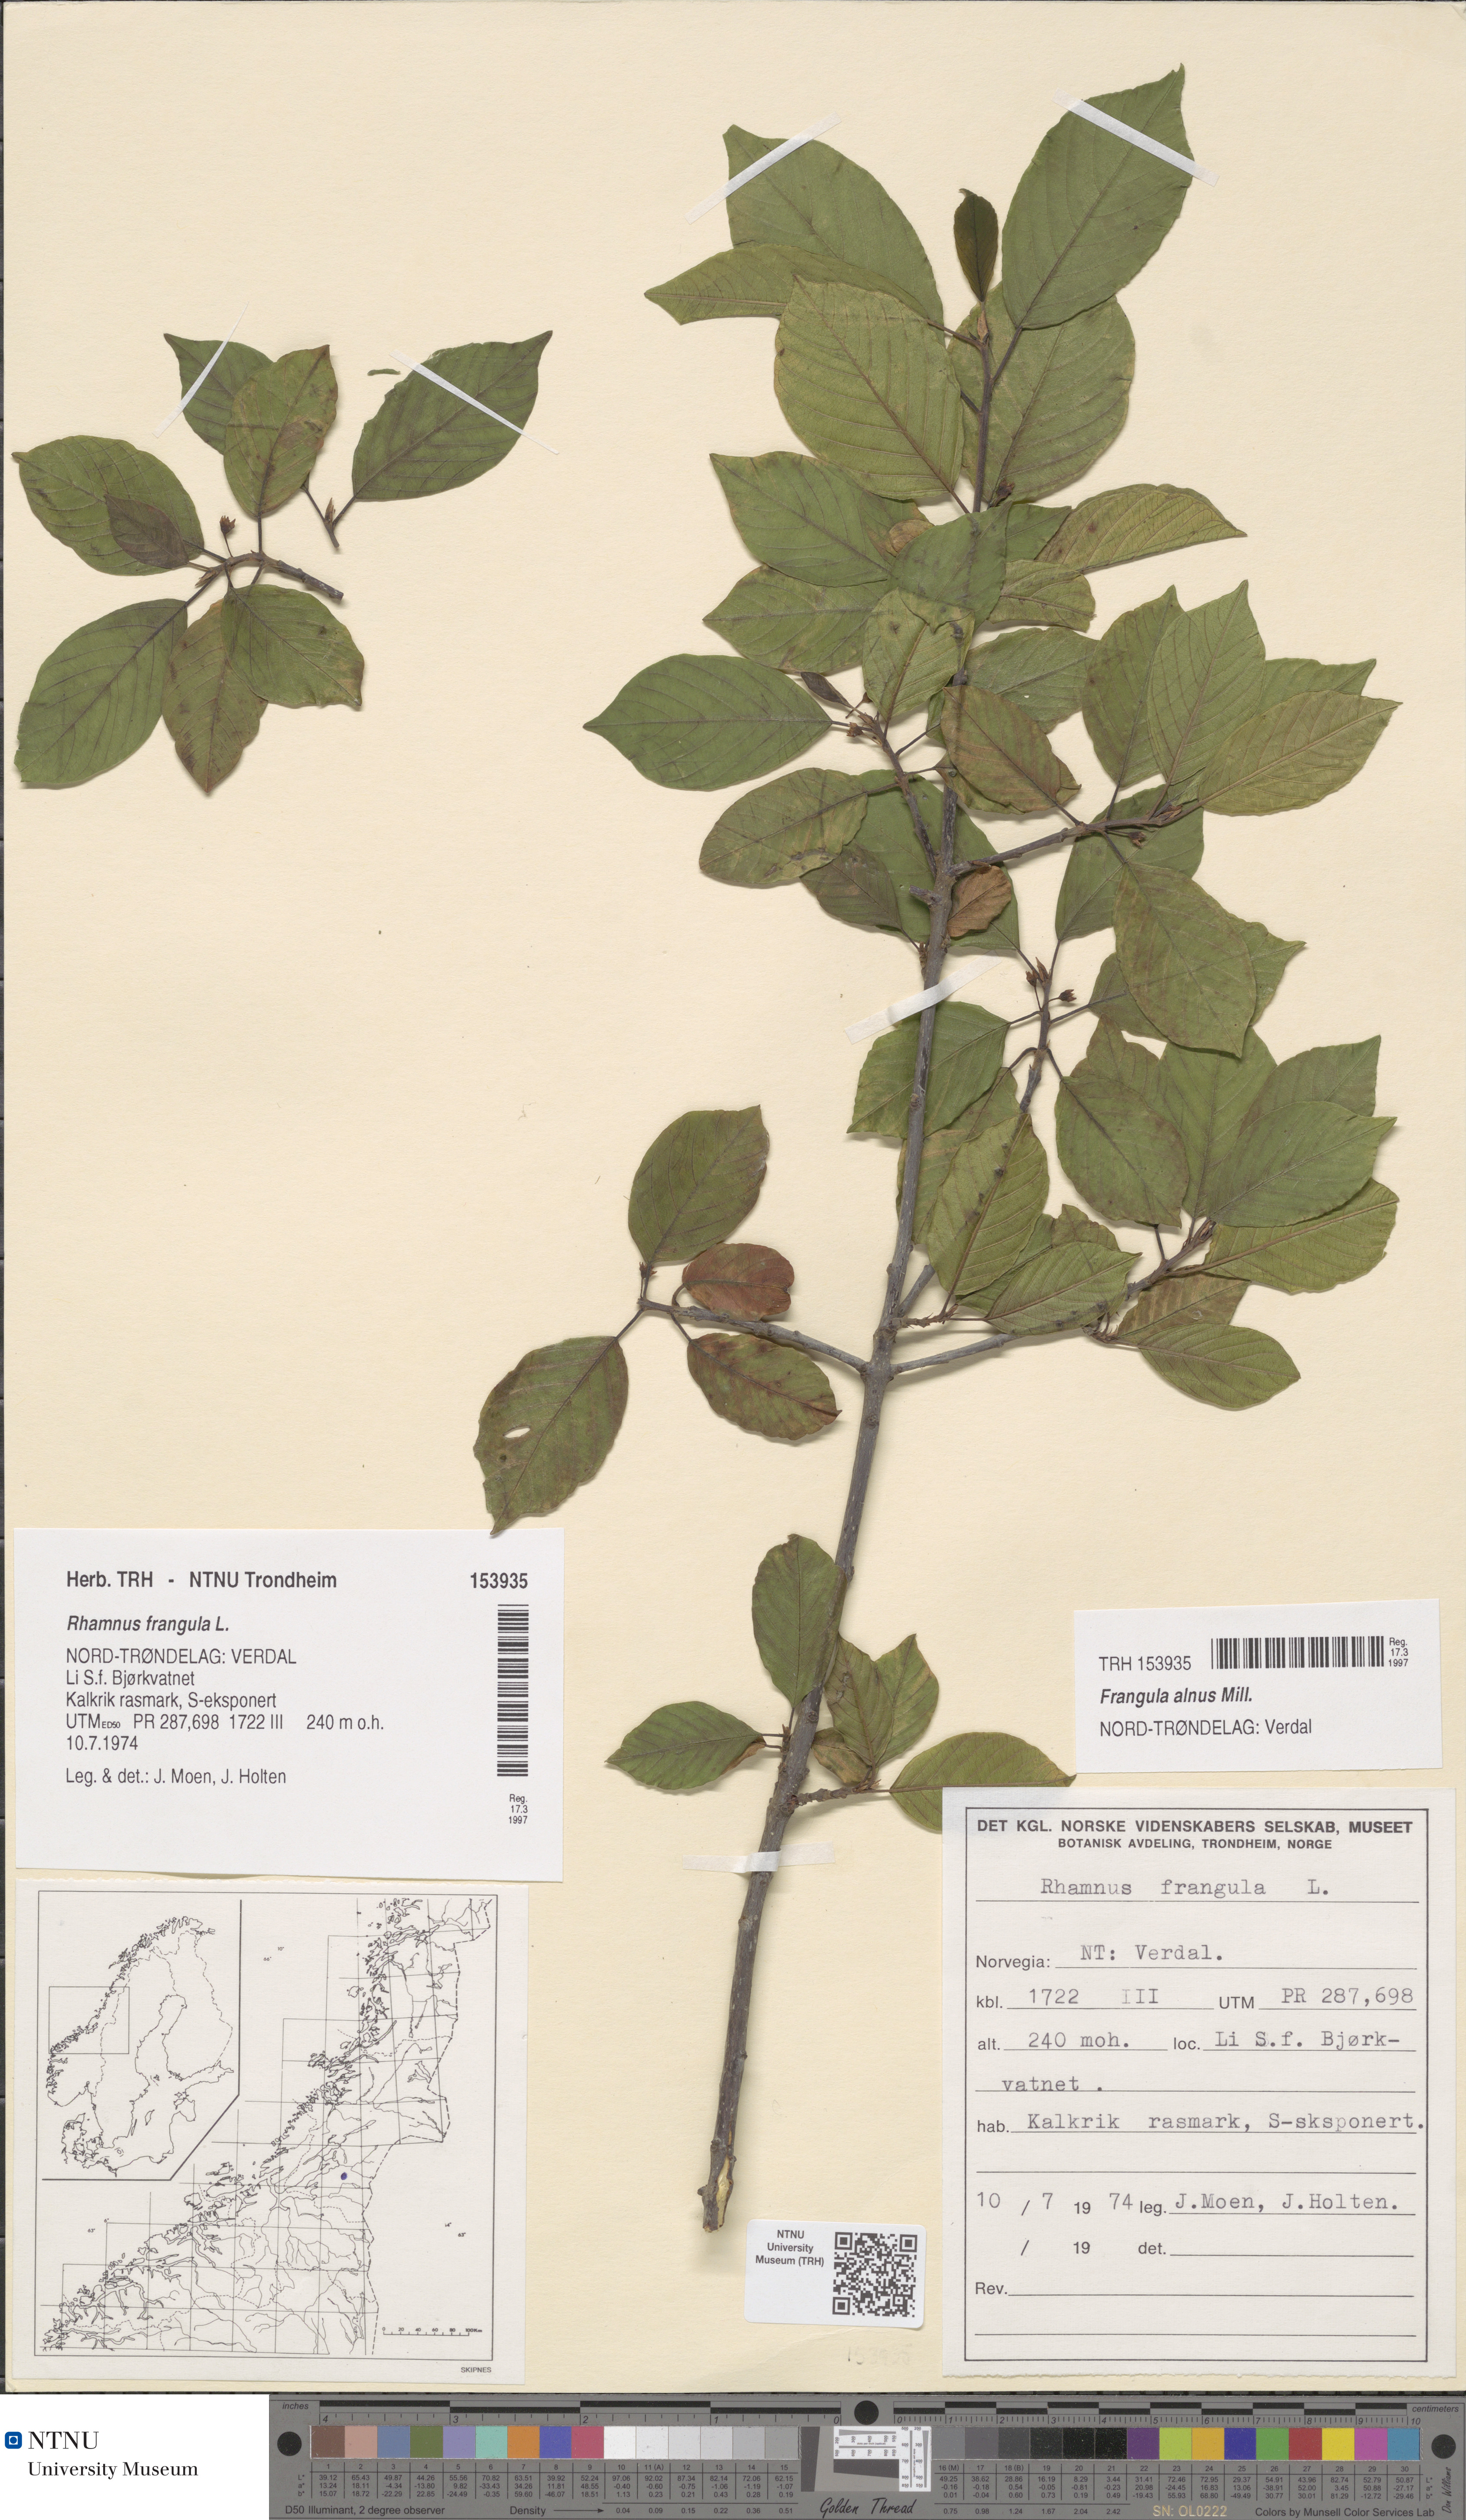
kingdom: Plantae
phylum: Tracheophyta
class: Magnoliopsida
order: Rosales
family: Rhamnaceae
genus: Frangula
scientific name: Frangula alnus
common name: Alder buckthorn
